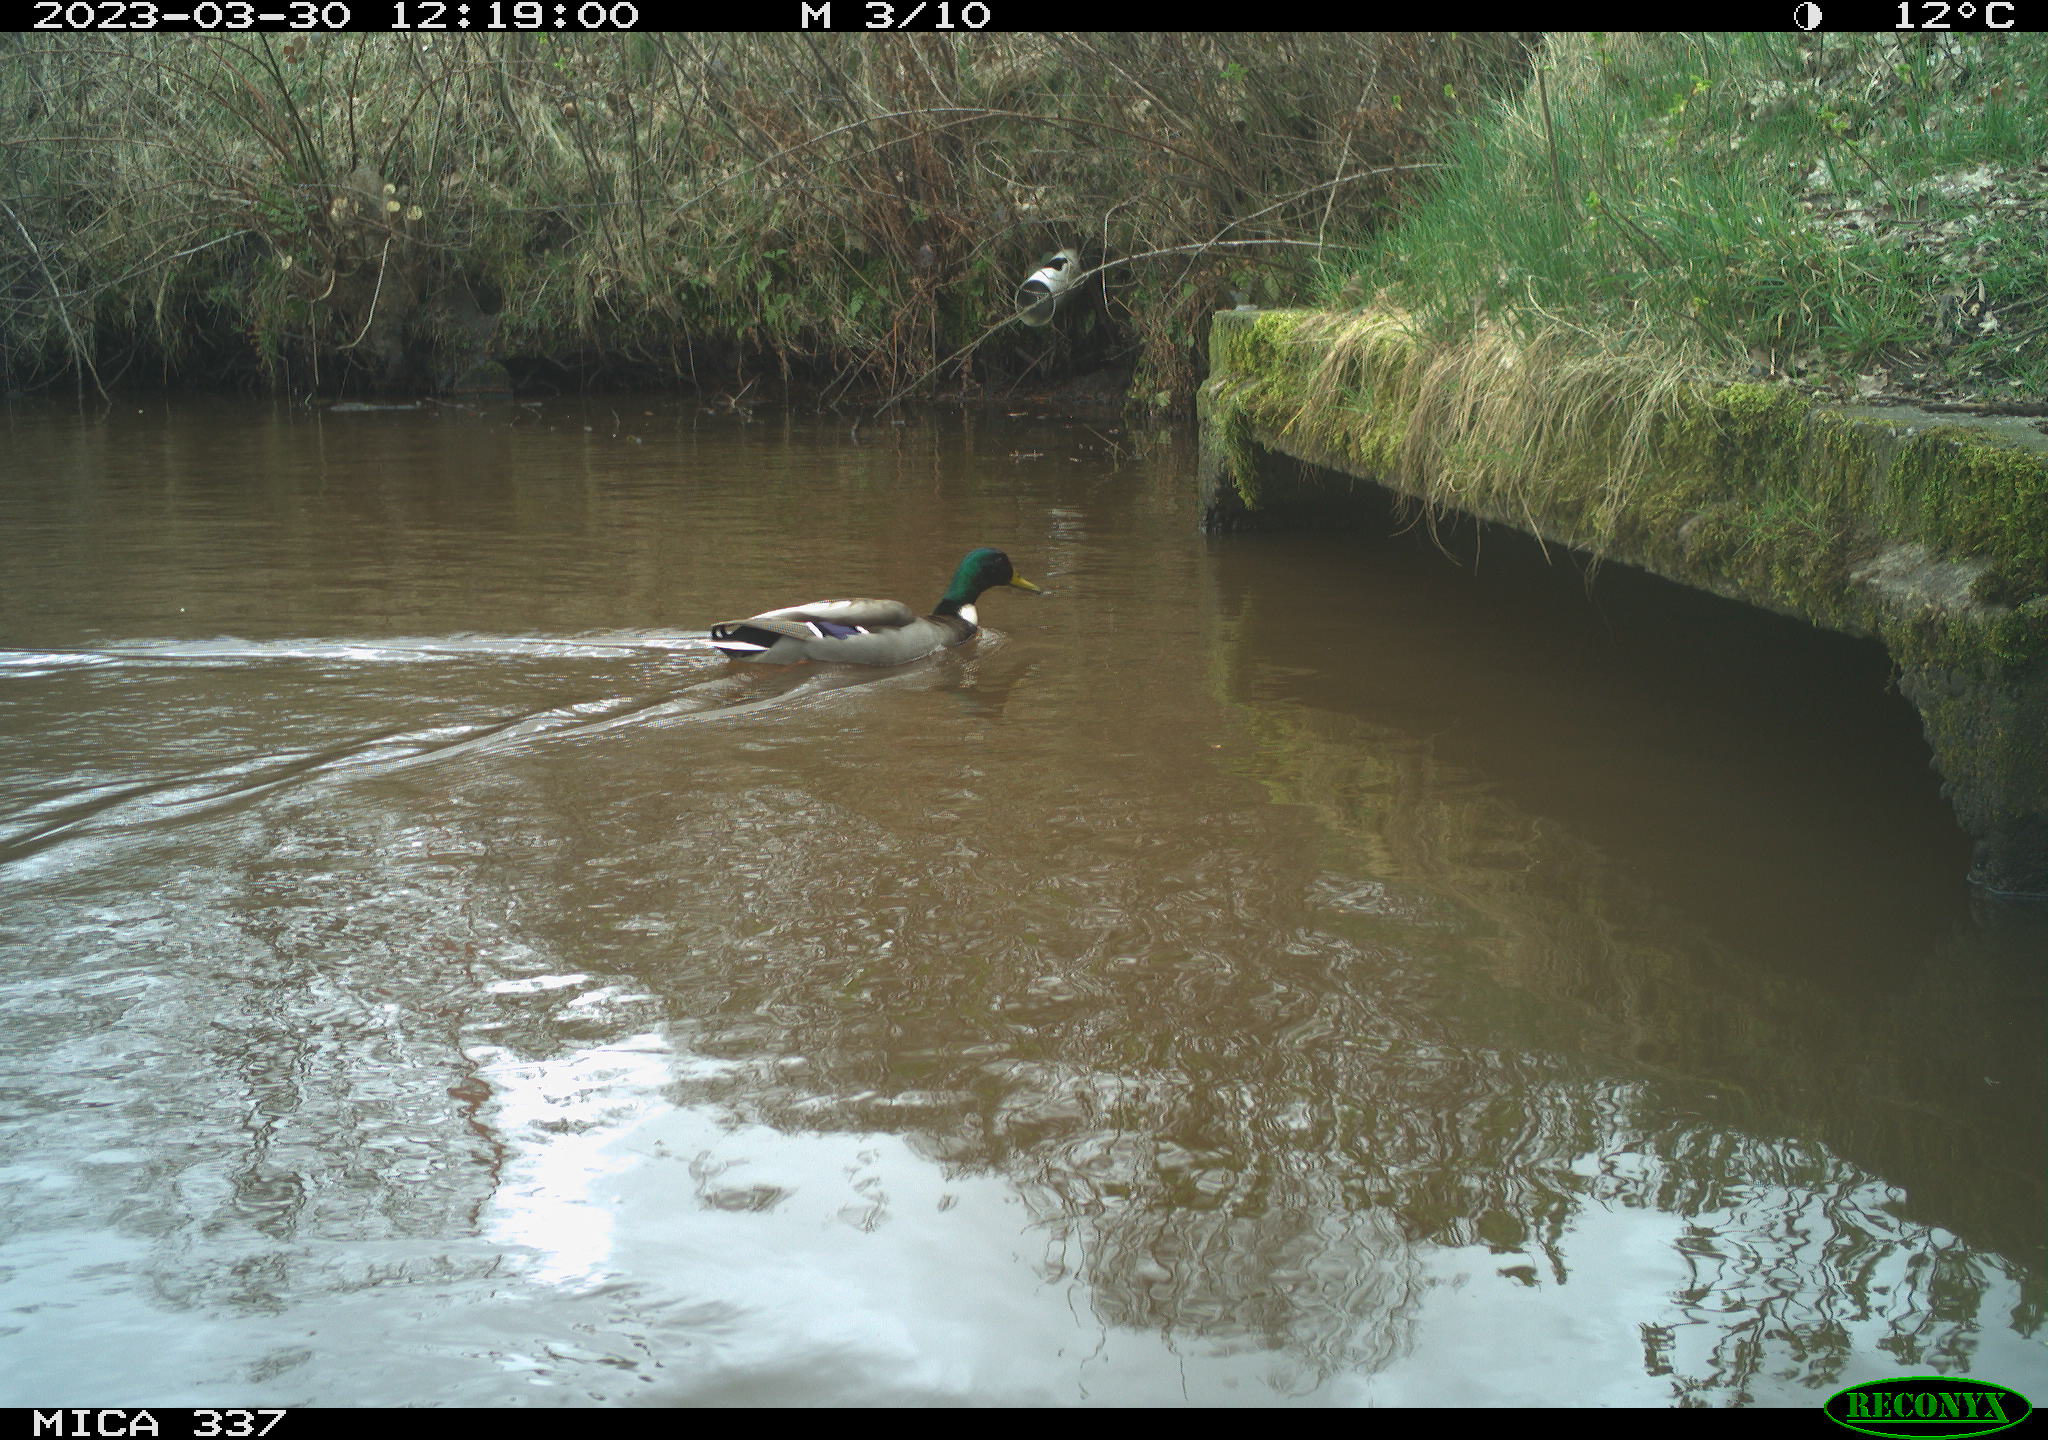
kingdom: Animalia
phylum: Chordata
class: Aves
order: Anseriformes
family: Anatidae
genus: Anas
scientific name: Anas
